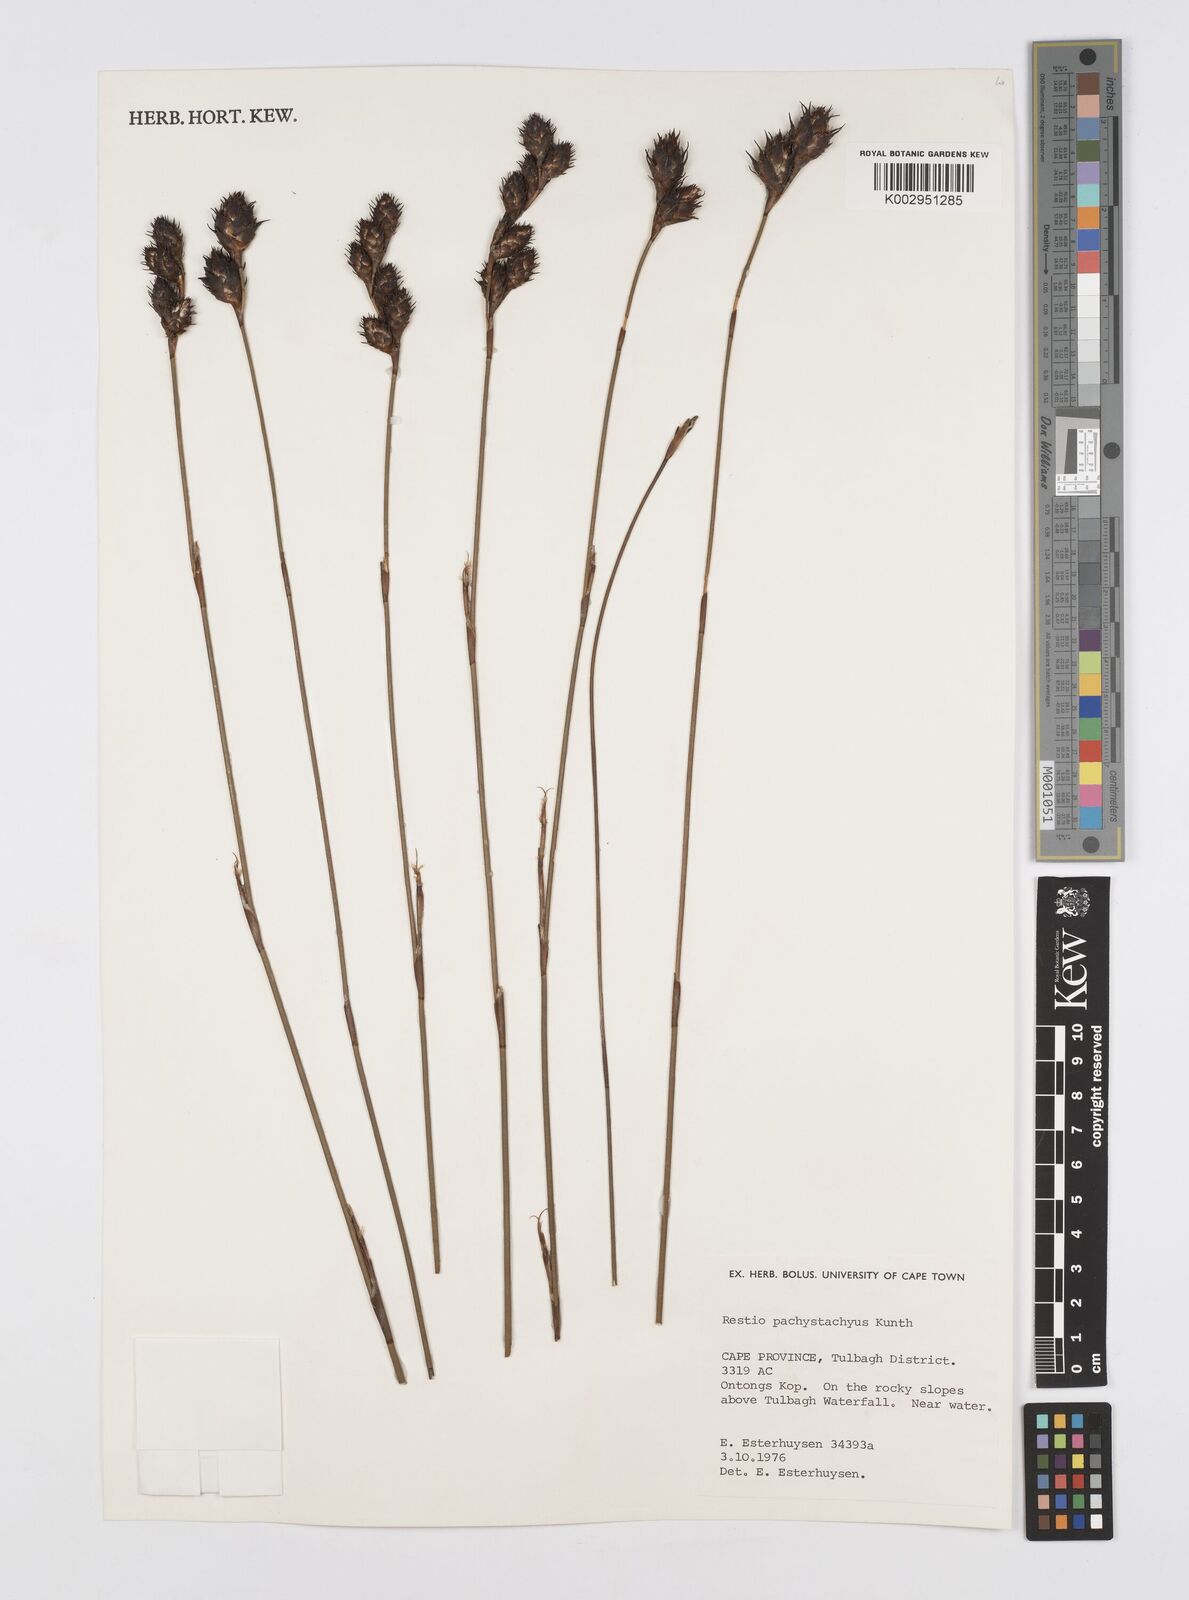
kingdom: Plantae
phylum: Tracheophyta
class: Liliopsida
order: Poales
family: Restionaceae
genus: Restio
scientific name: Restio pachystachyus
